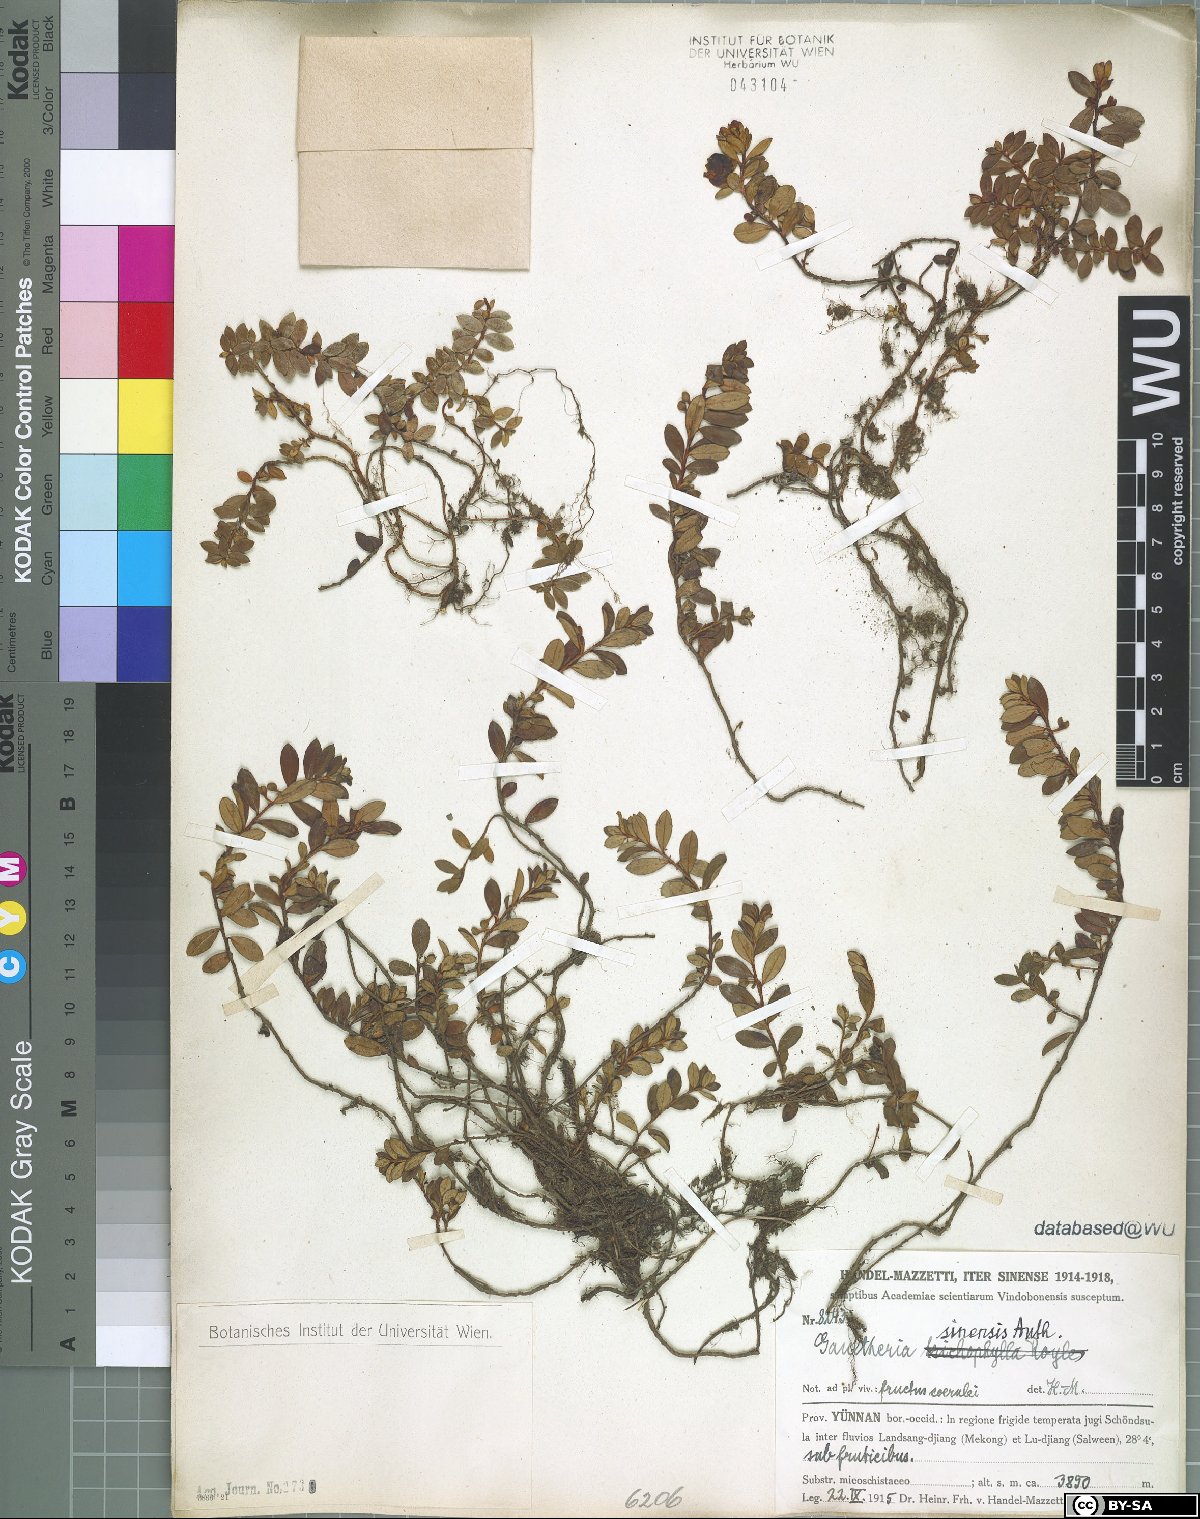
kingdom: Plantae
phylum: Tracheophyta
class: Magnoliopsida
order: Ericales
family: Ericaceae
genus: Gaultheria
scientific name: Gaultheria sinensis
